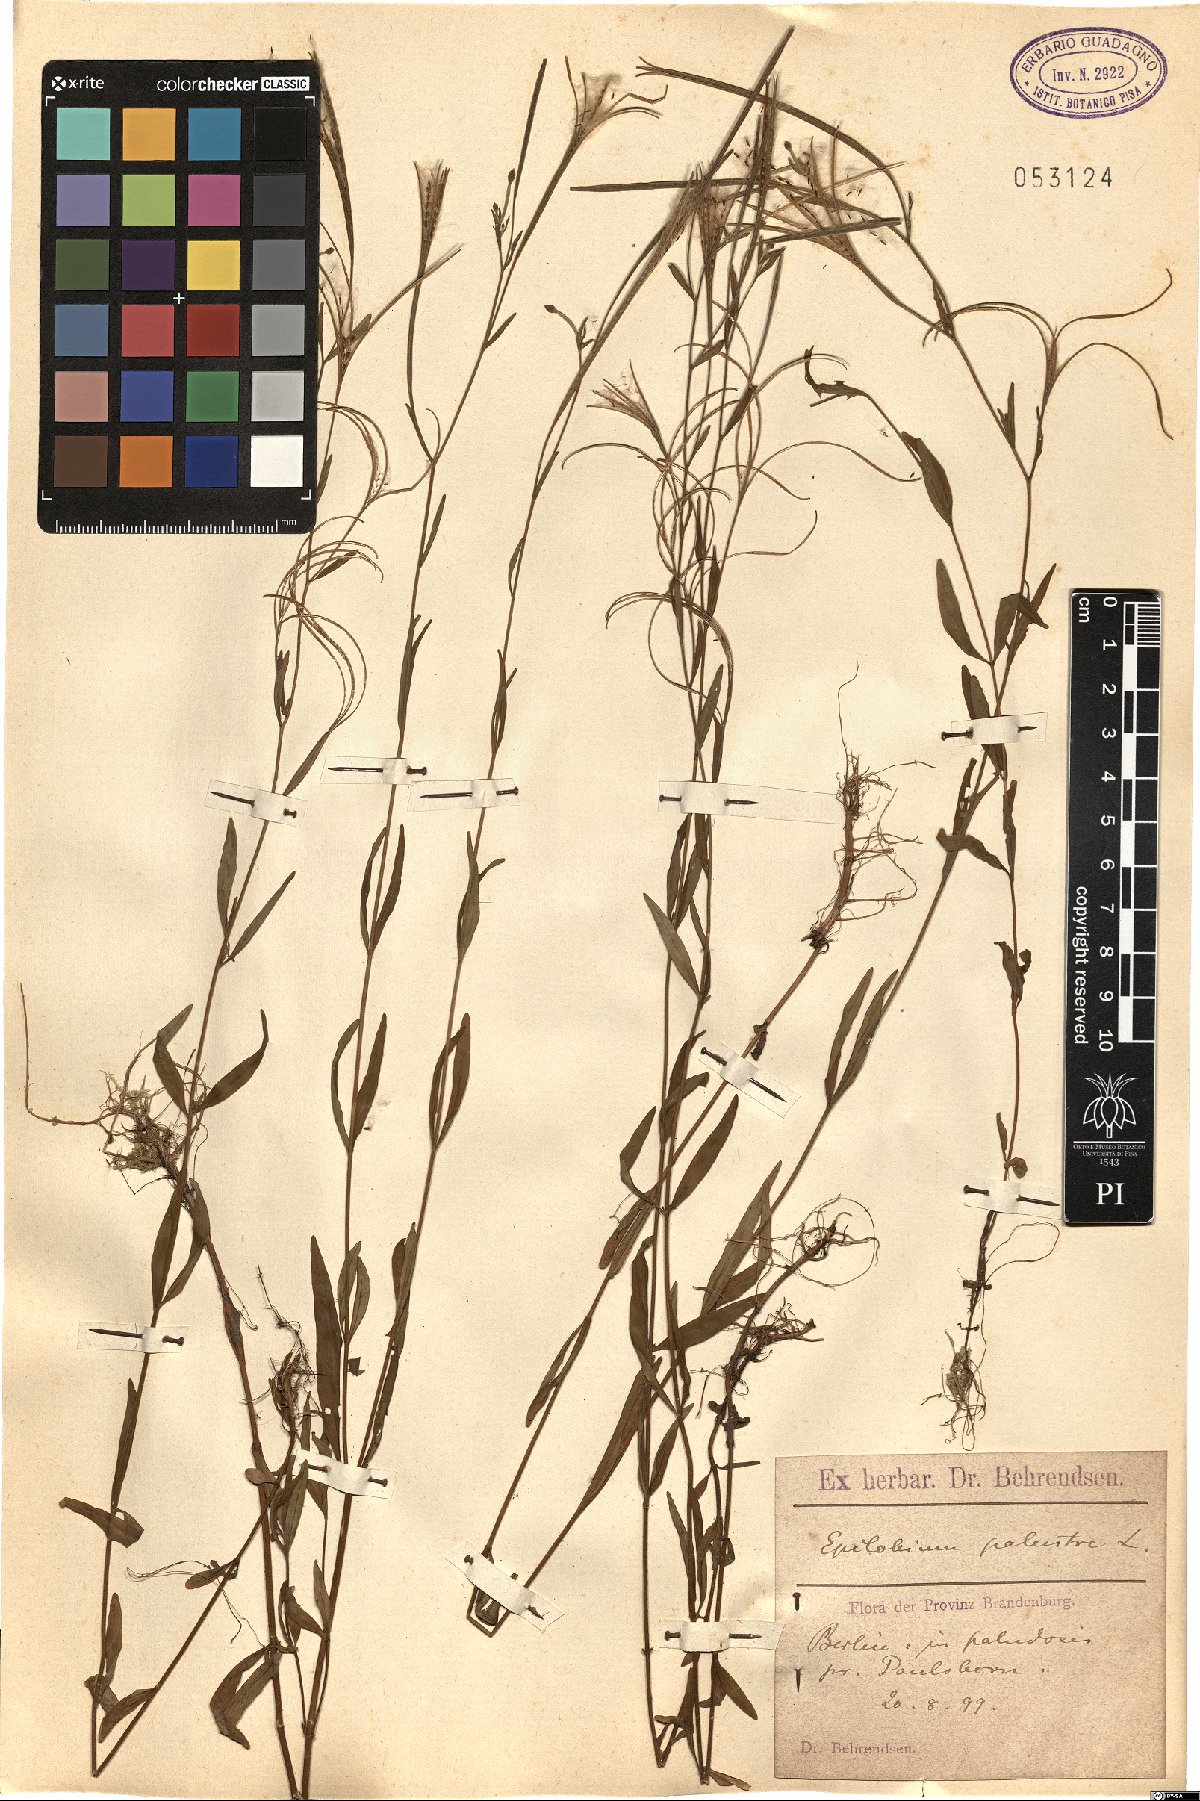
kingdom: Plantae
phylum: Tracheophyta
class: Magnoliopsida
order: Myrtales
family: Onagraceae
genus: Epilobium
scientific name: Epilobium palustre
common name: Marsh willowherb
